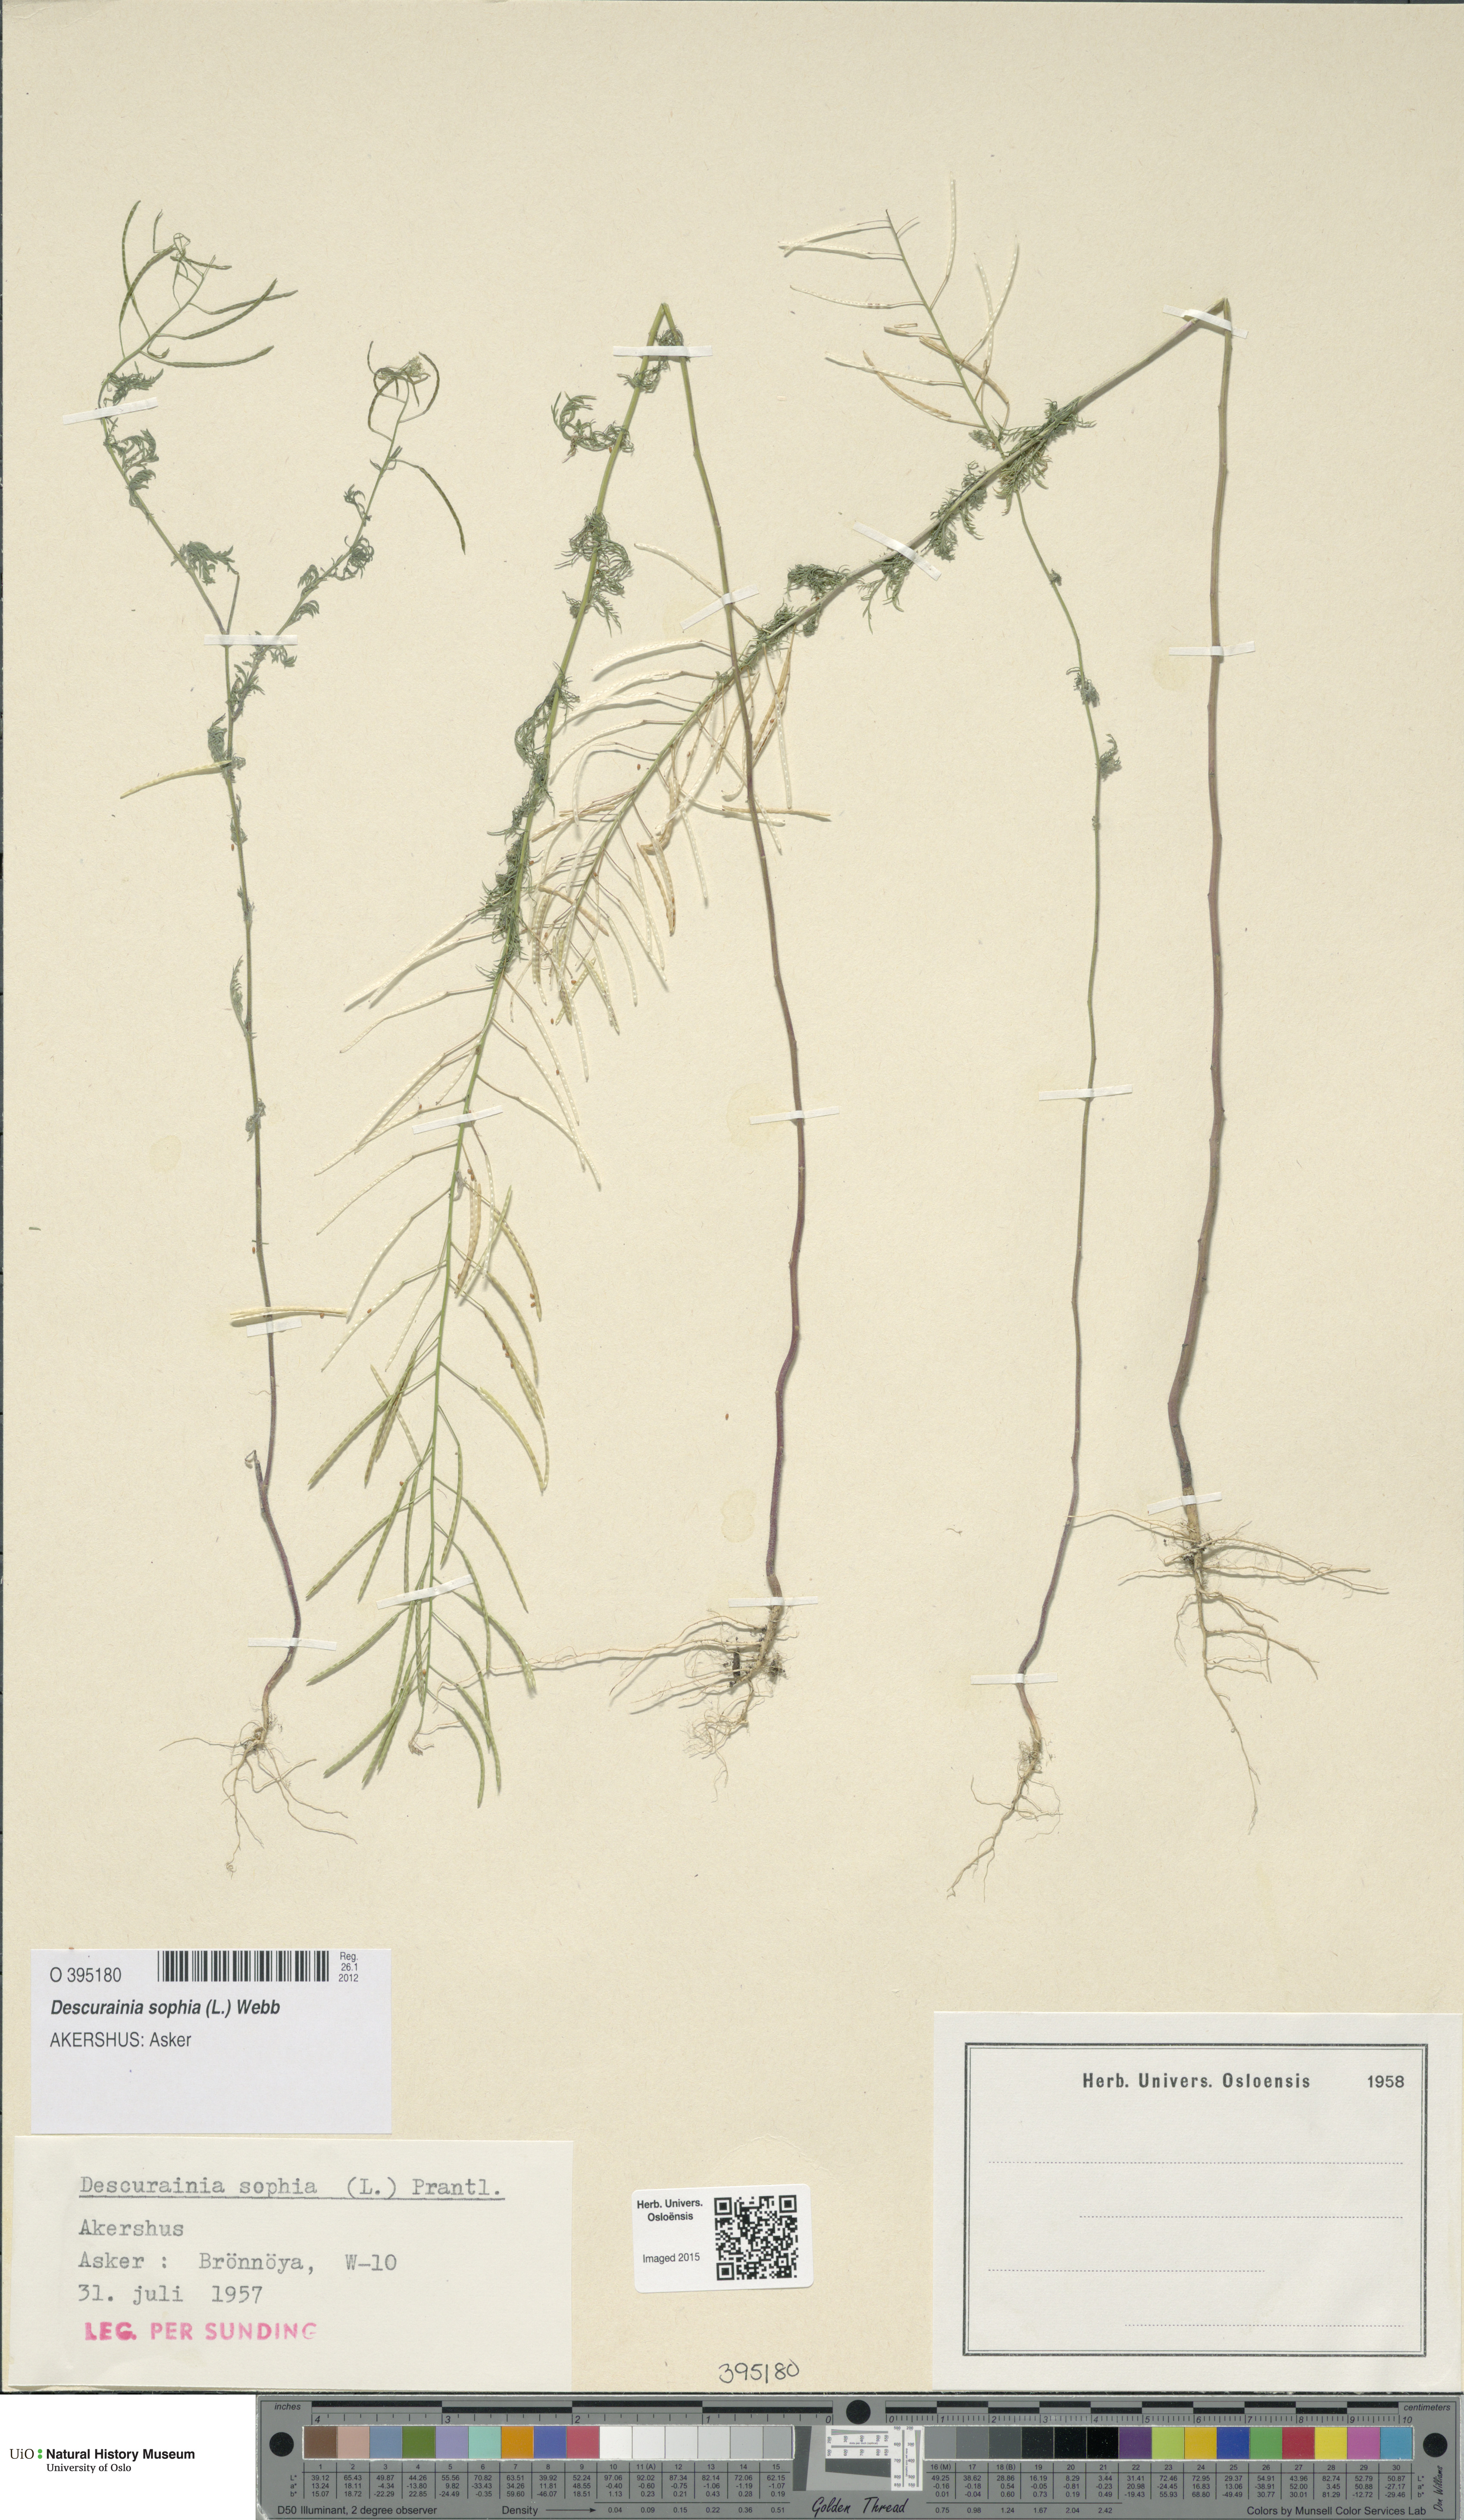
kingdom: Plantae
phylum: Tracheophyta
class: Magnoliopsida
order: Brassicales
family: Brassicaceae
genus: Descurainia
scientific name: Descurainia sophia
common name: Flixweed
